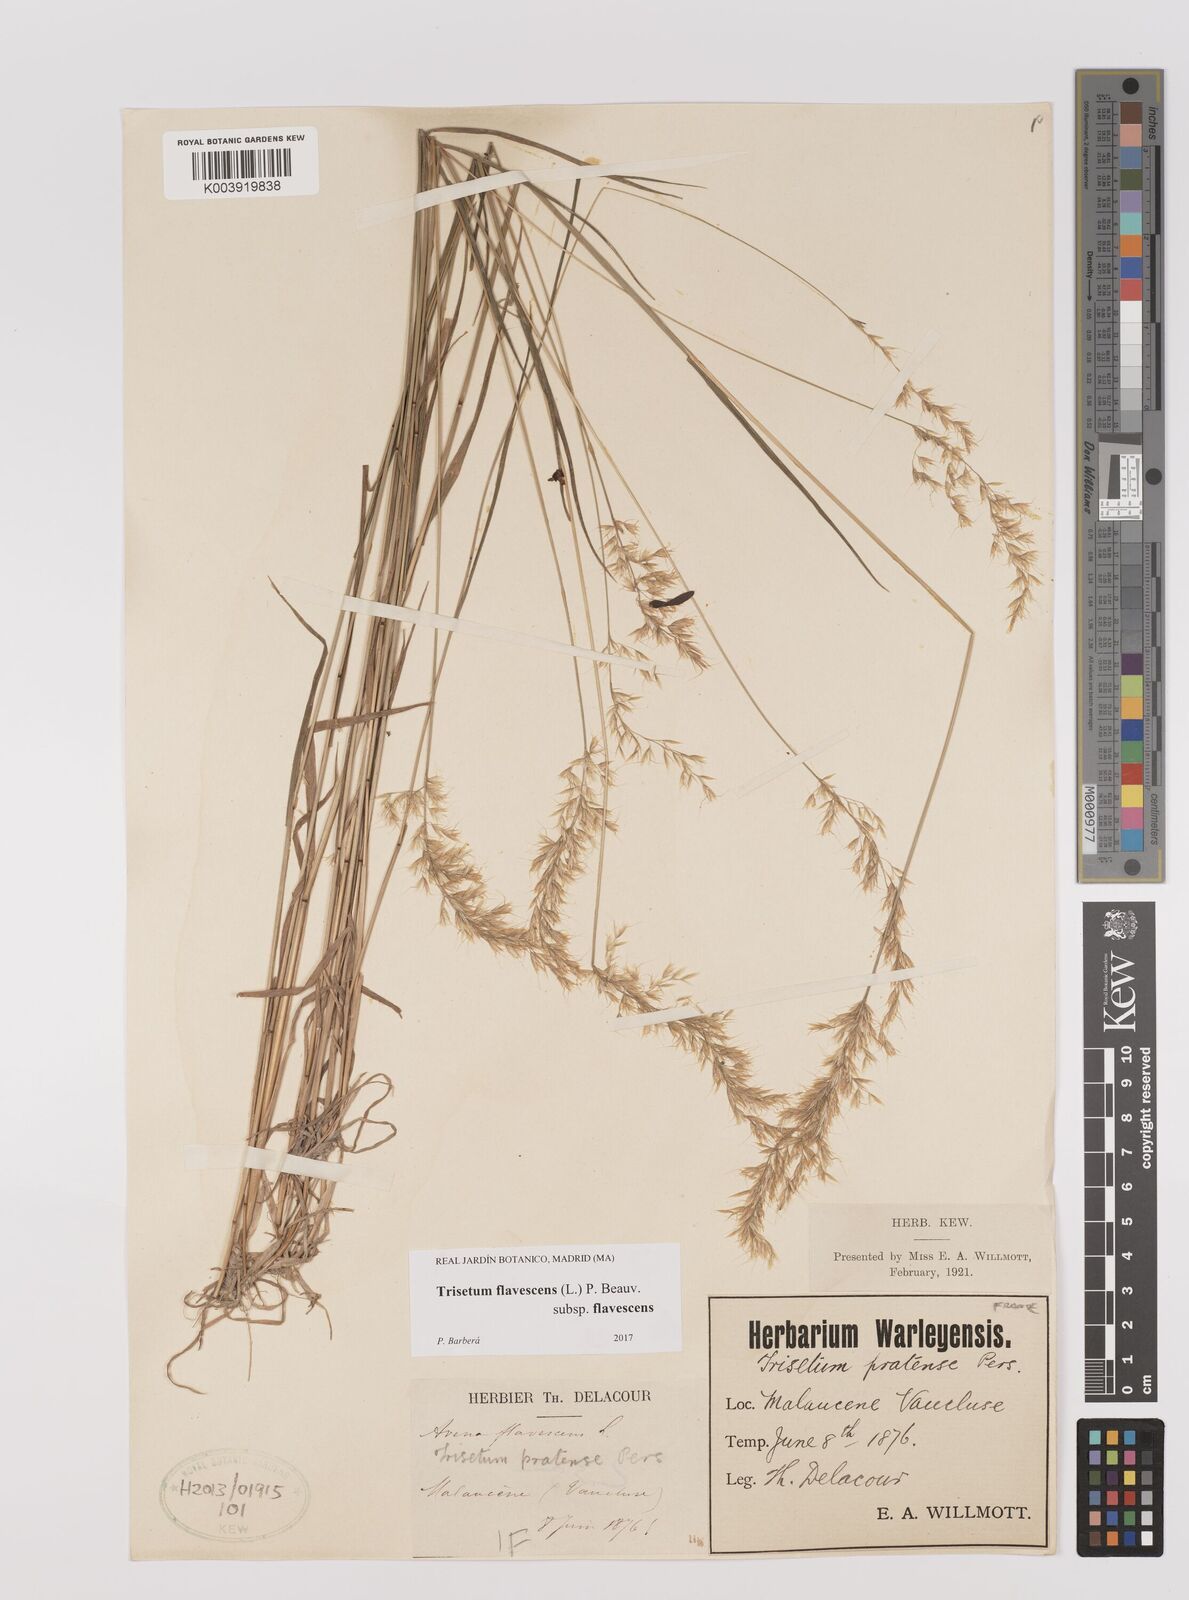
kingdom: Plantae
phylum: Tracheophyta
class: Liliopsida
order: Poales
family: Poaceae
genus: Trisetum
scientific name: Trisetum flavescens
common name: Yellow oat-grass
